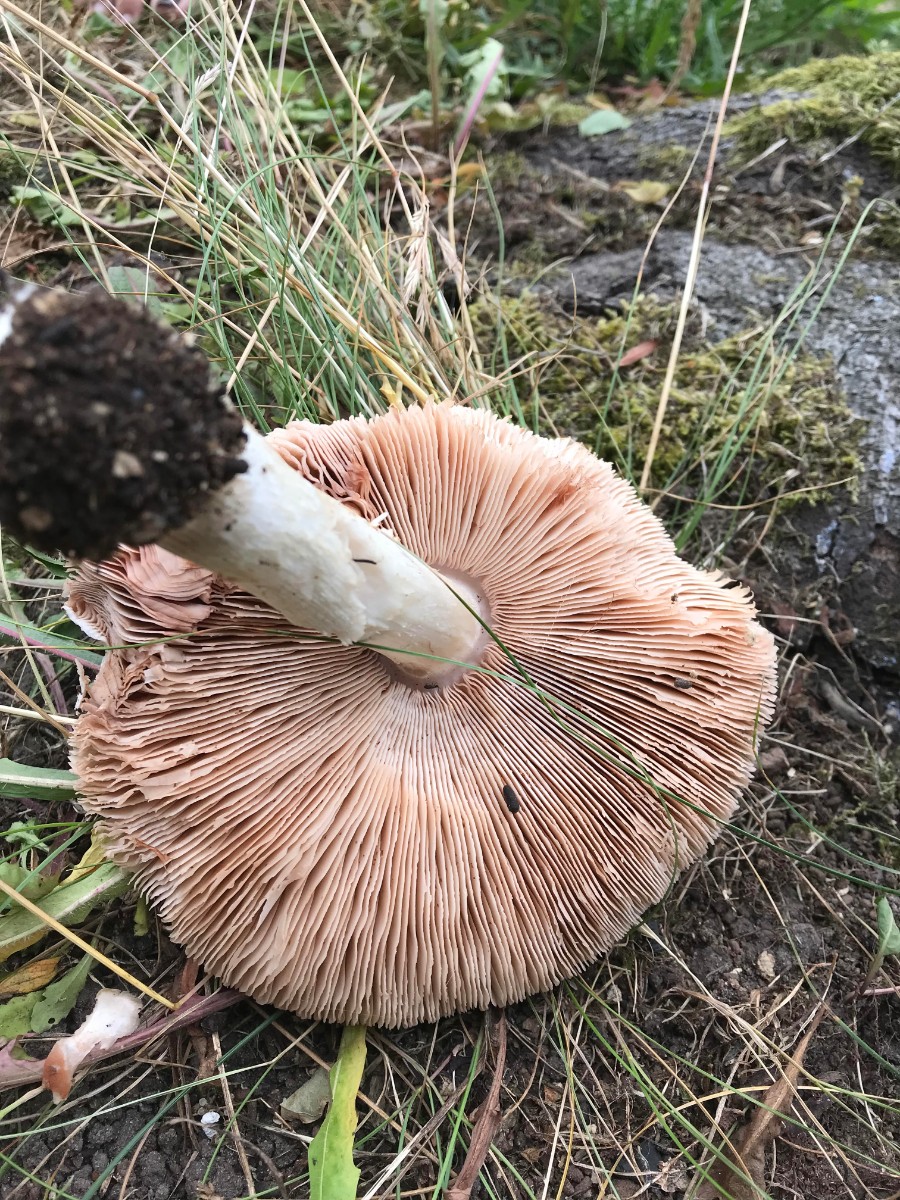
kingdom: Fungi
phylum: Basidiomycota
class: Agaricomycetes
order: Agaricales
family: Pluteaceae
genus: Pluteus
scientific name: Pluteus petasatus
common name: savsmulds-skærmhat
